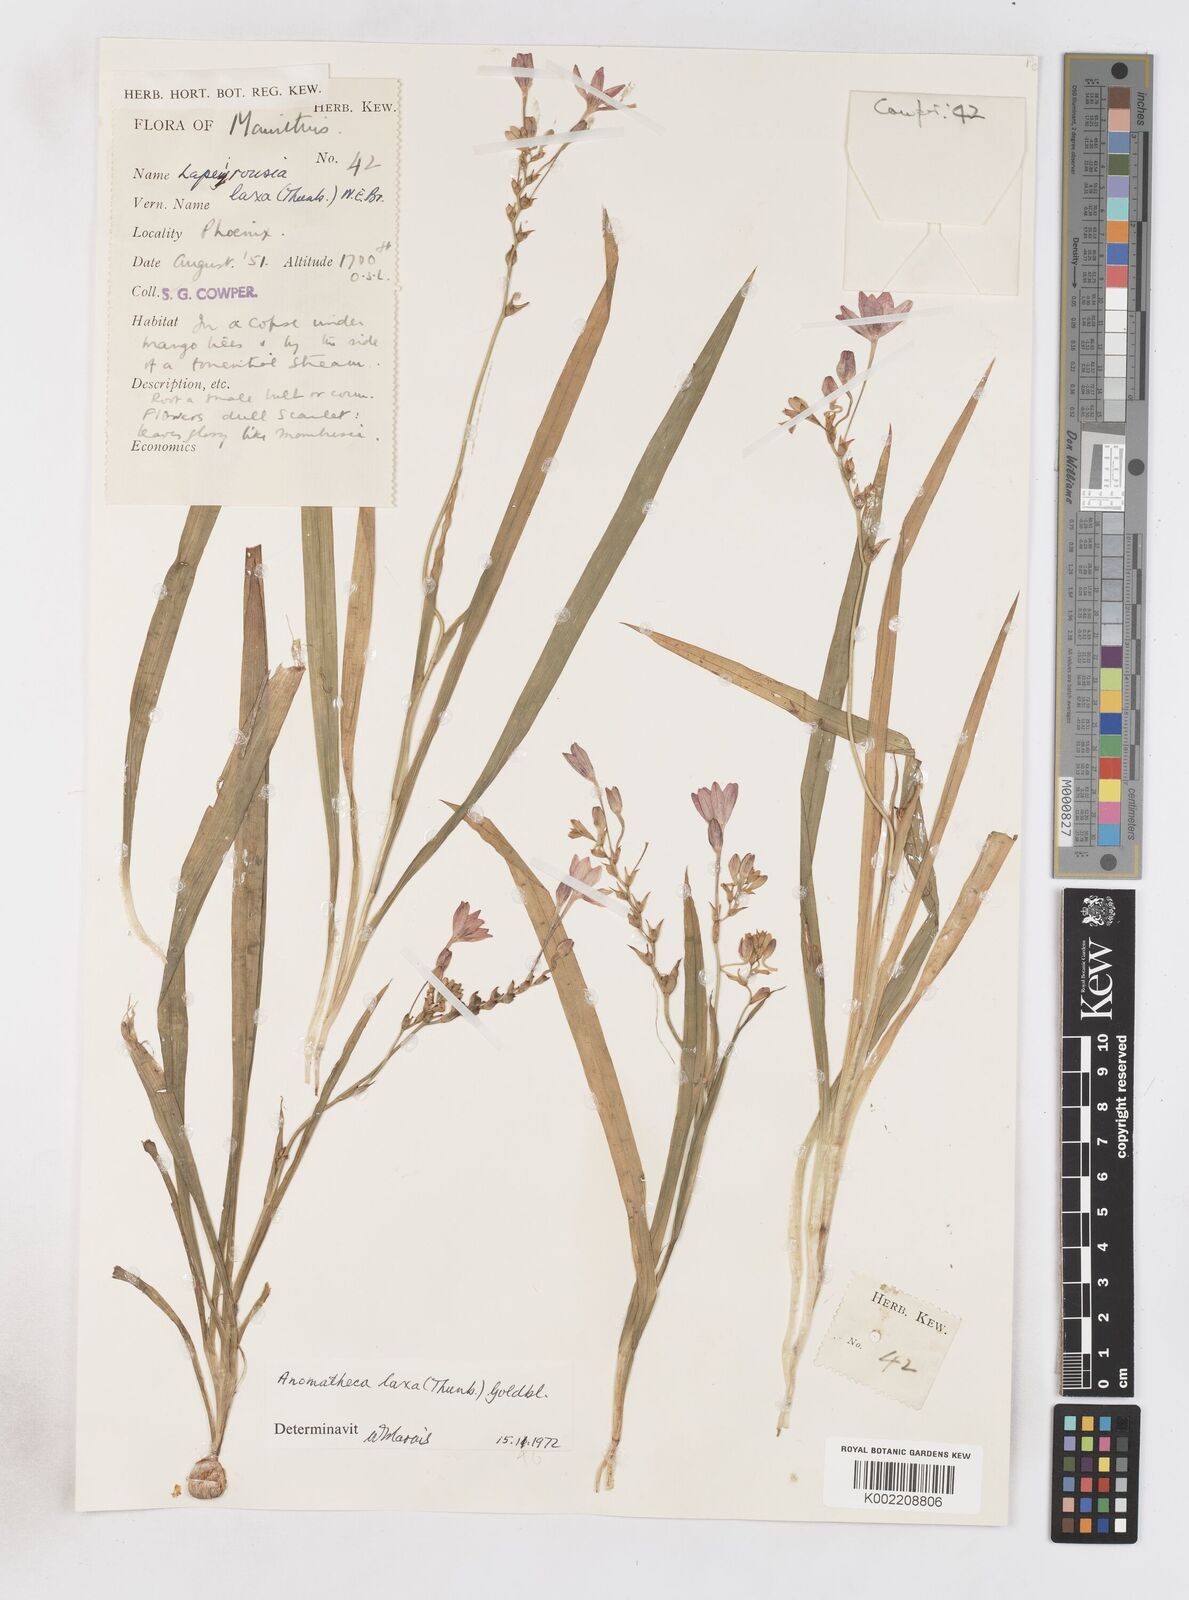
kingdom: Plantae
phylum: Tracheophyta
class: Liliopsida
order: Asparagales
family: Iridaceae
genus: Freesia
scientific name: Freesia laxa
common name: False freesia
